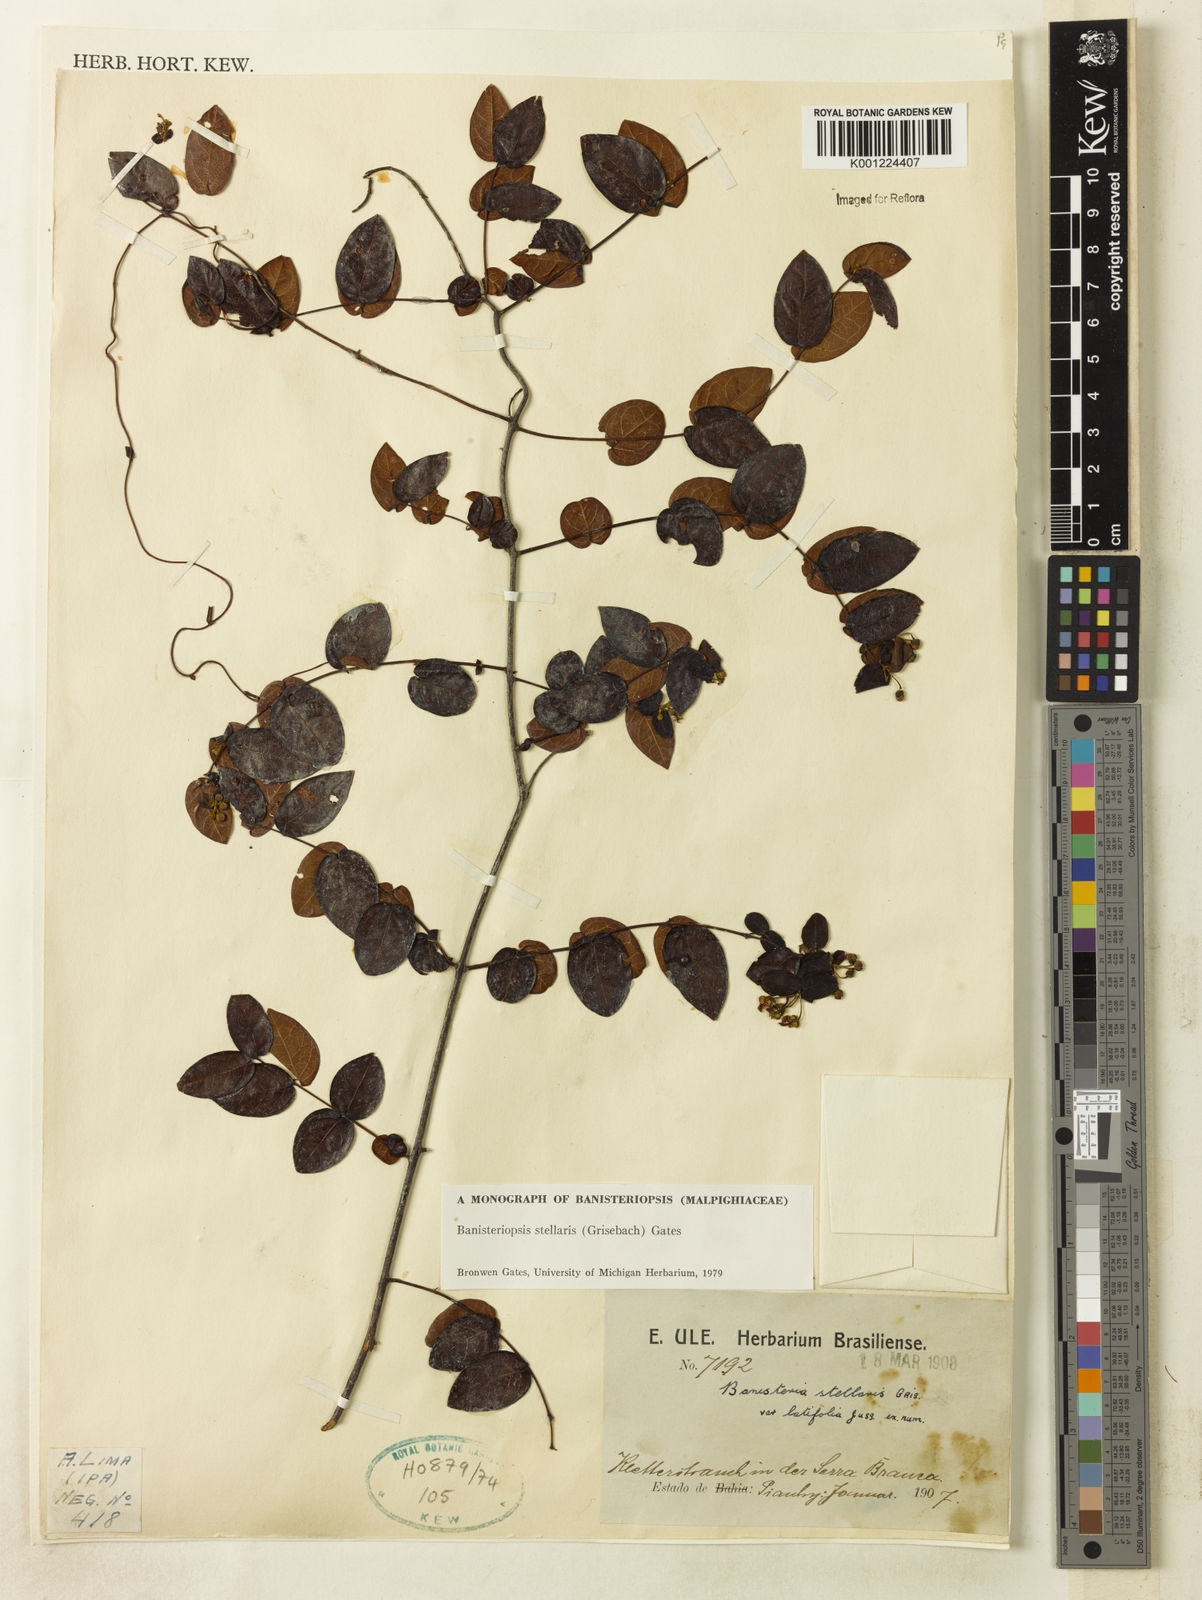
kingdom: Plantae
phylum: Tracheophyta
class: Magnoliopsida
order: Malpighiales
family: Malpighiaceae
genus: Banisteriopsis
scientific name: Banisteriopsis stellaris
